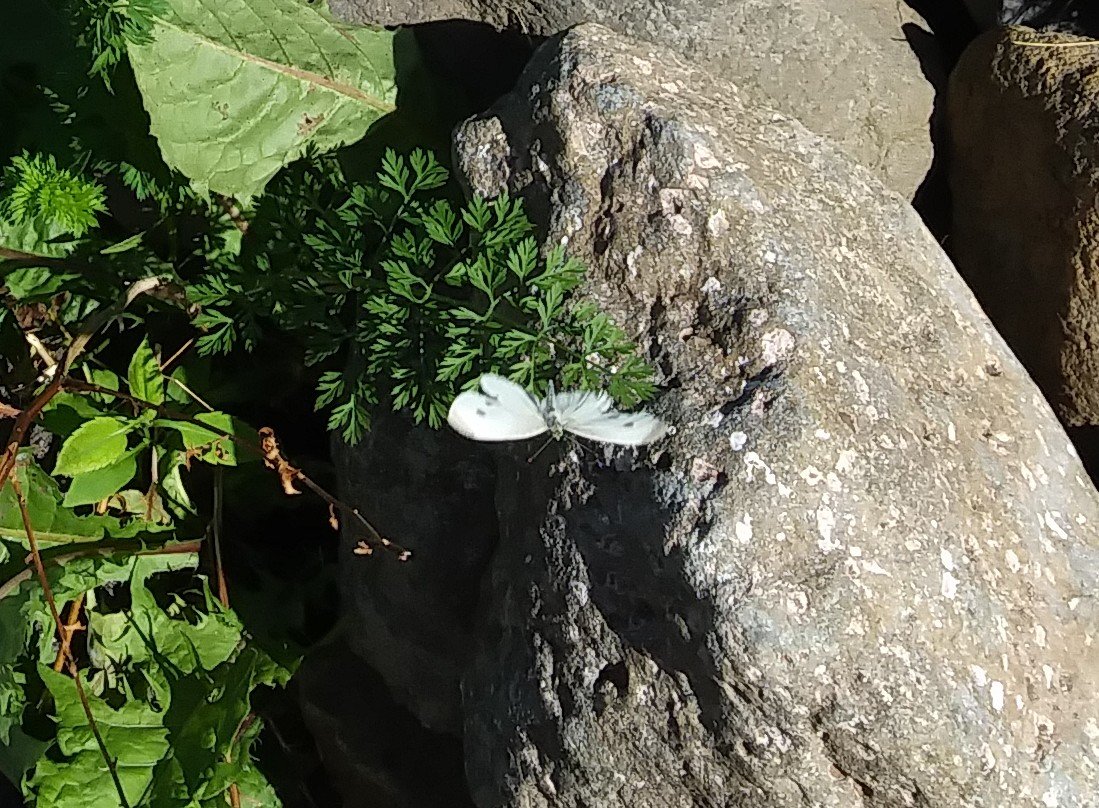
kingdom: Animalia
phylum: Arthropoda
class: Insecta
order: Lepidoptera
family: Pieridae
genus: Pieris
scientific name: Pieris rapae
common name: Cabbage White
